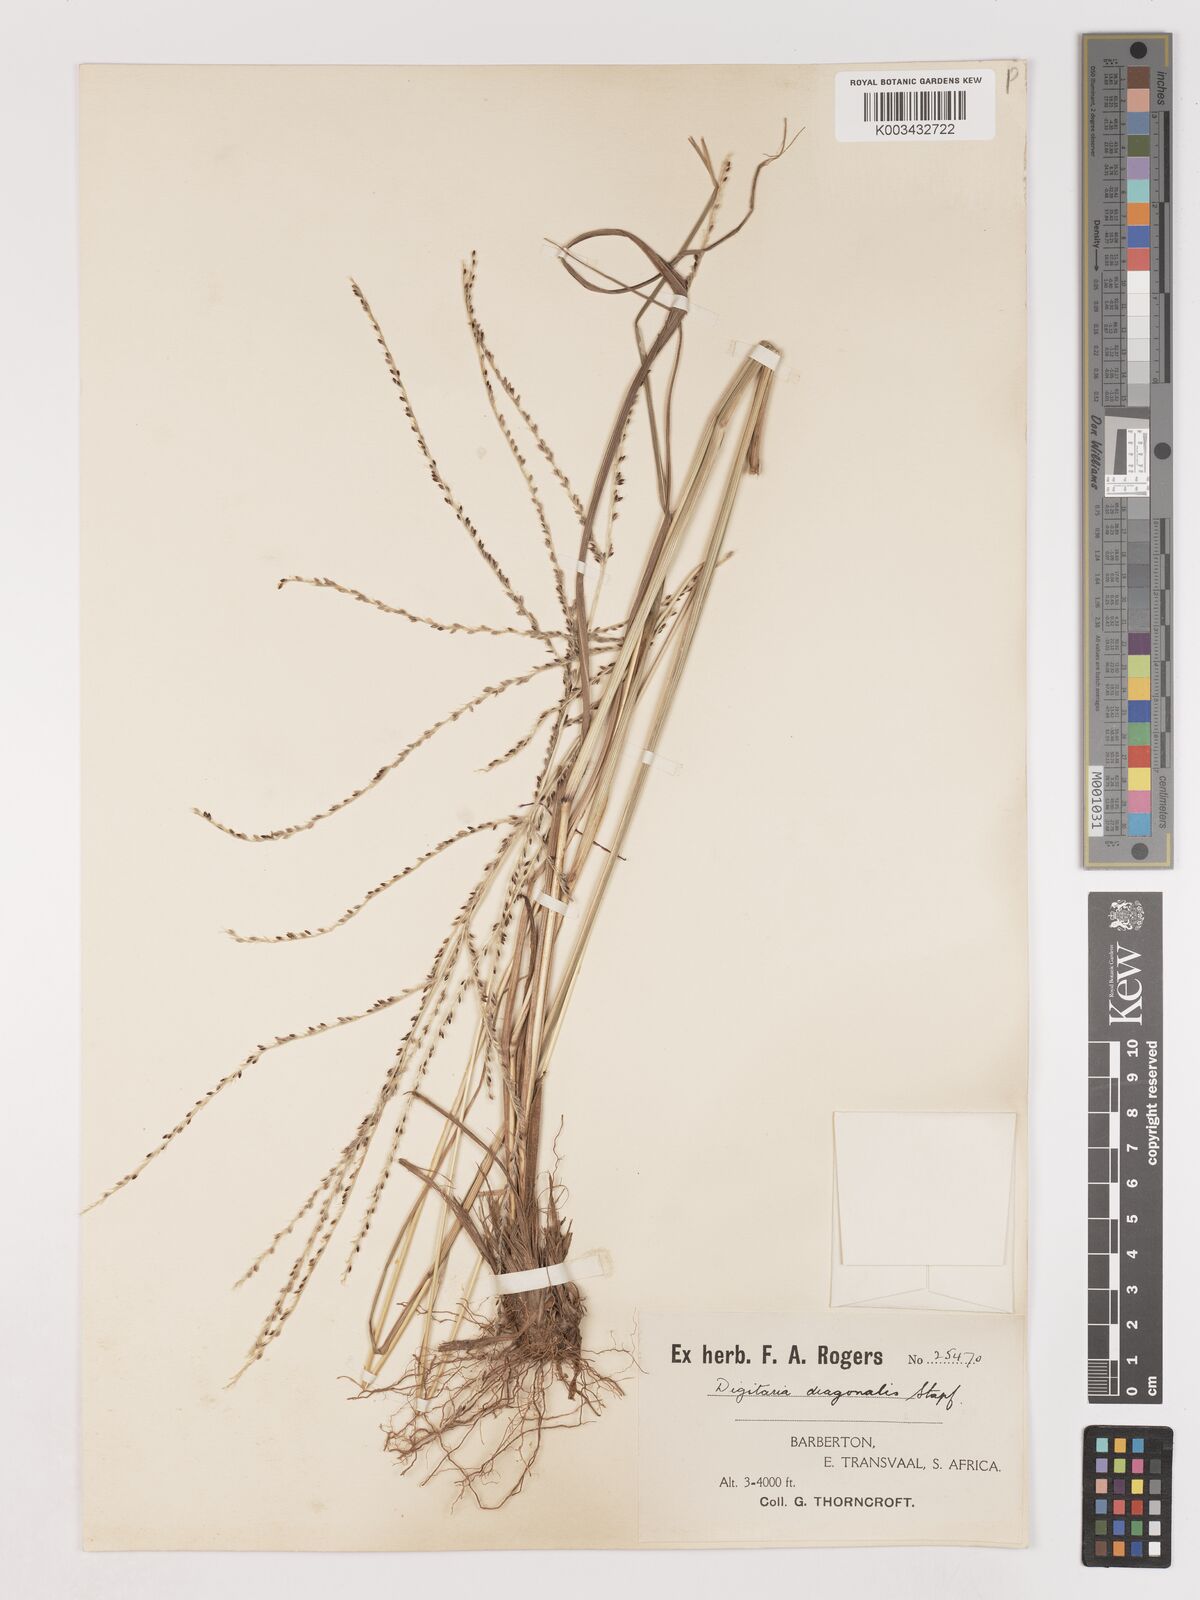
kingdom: Plantae
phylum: Tracheophyta
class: Liliopsida
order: Poales
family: Poaceae
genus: Digitaria
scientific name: Digitaria diagonalis
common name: Brown-seed finger grass
